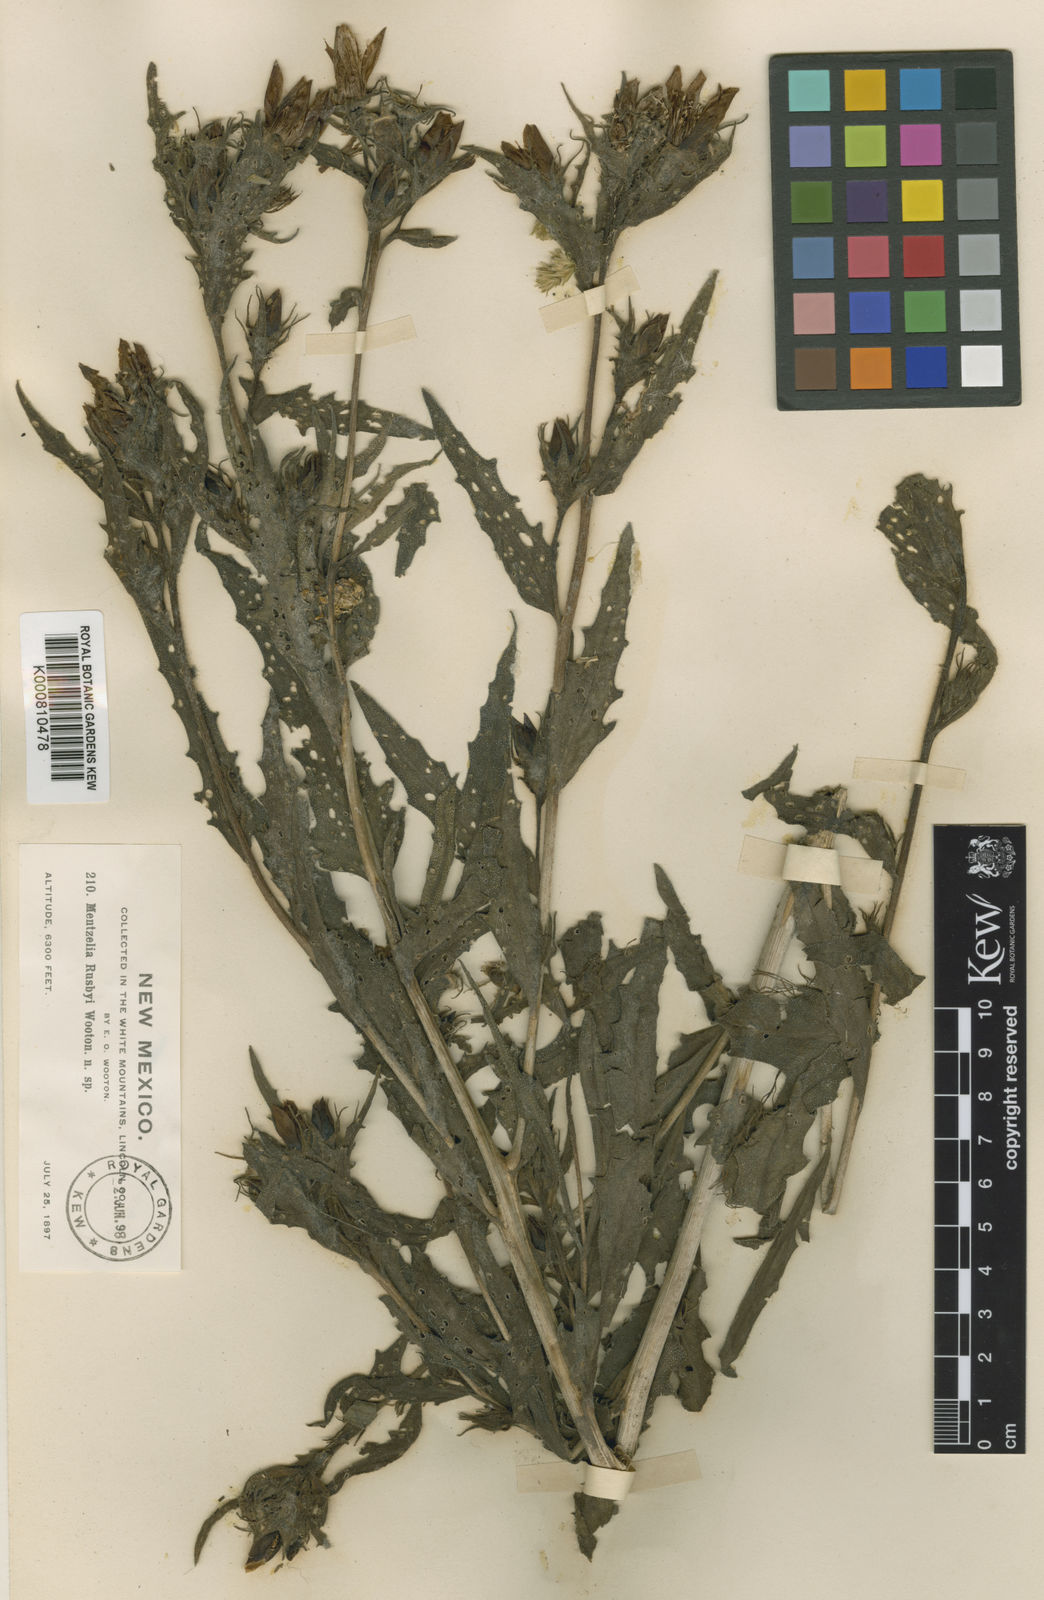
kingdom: Plantae
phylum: Tracheophyta
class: Magnoliopsida
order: Cornales
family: Loasaceae
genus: Mentzelia
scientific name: Mentzelia rusbyi
